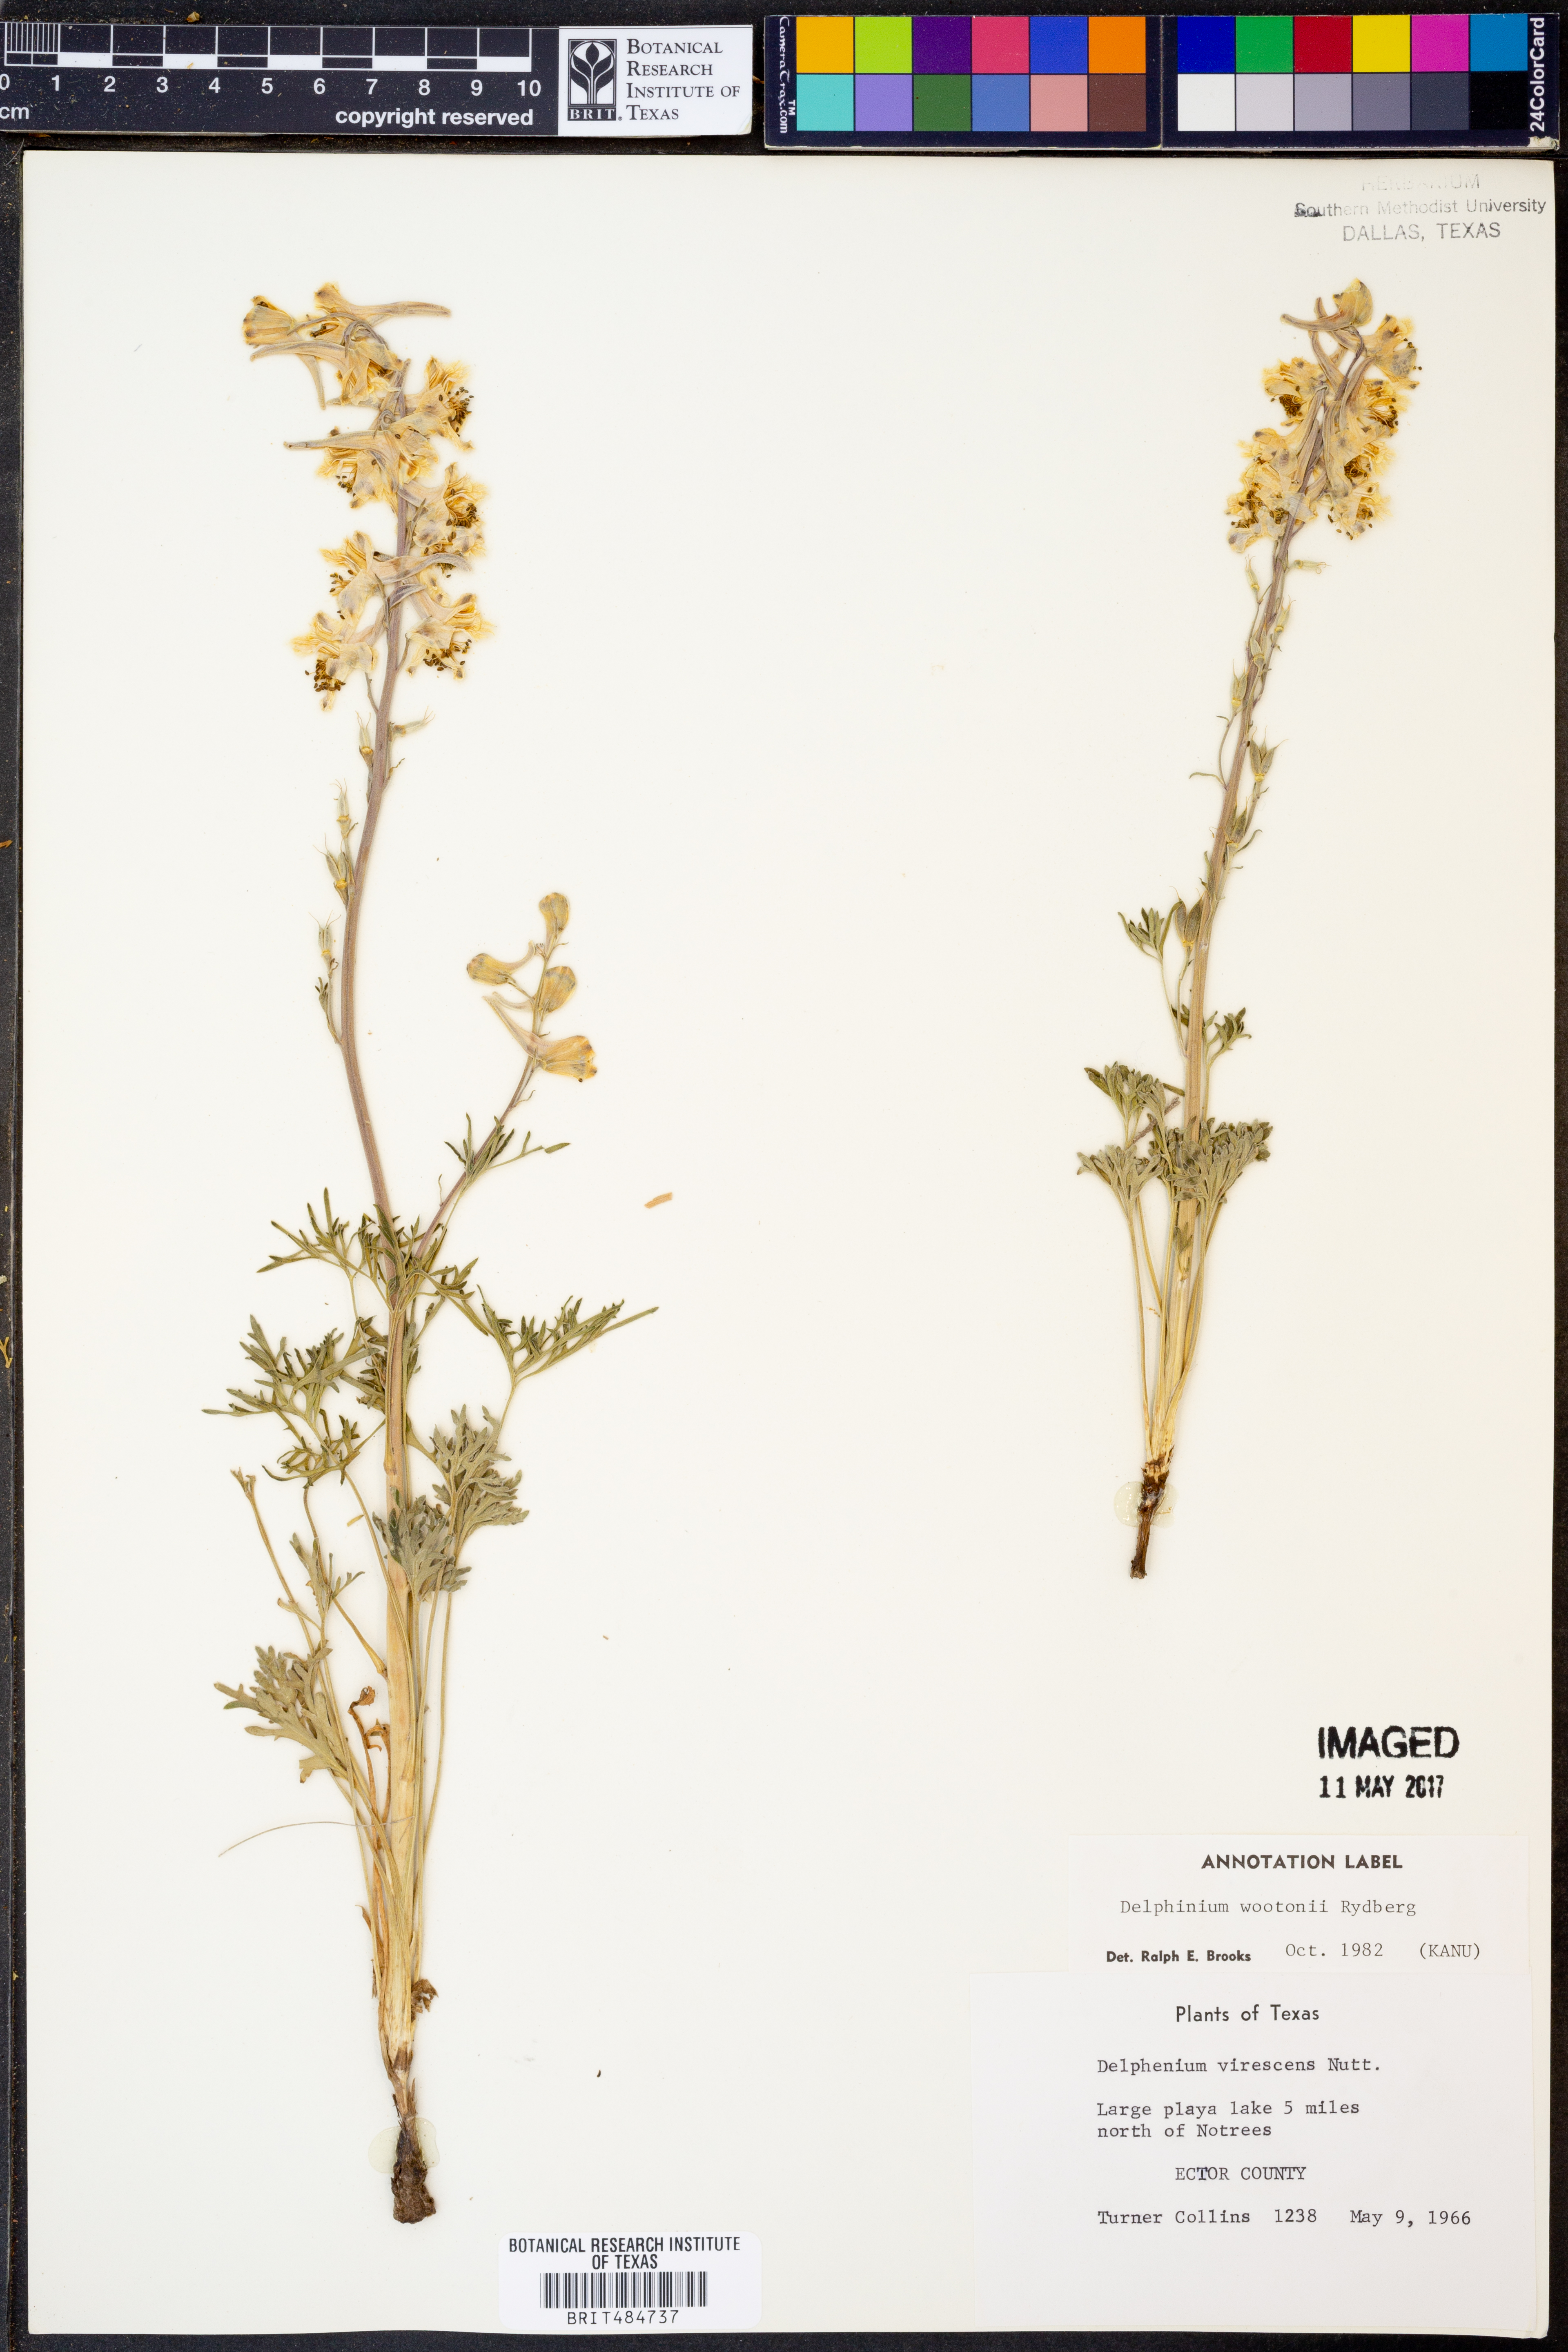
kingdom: Plantae
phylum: Tracheophyta
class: Magnoliopsida
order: Ranunculales
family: Ranunculaceae
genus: Delphinium
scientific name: Delphinium carolinianum
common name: Carolina larkspur
